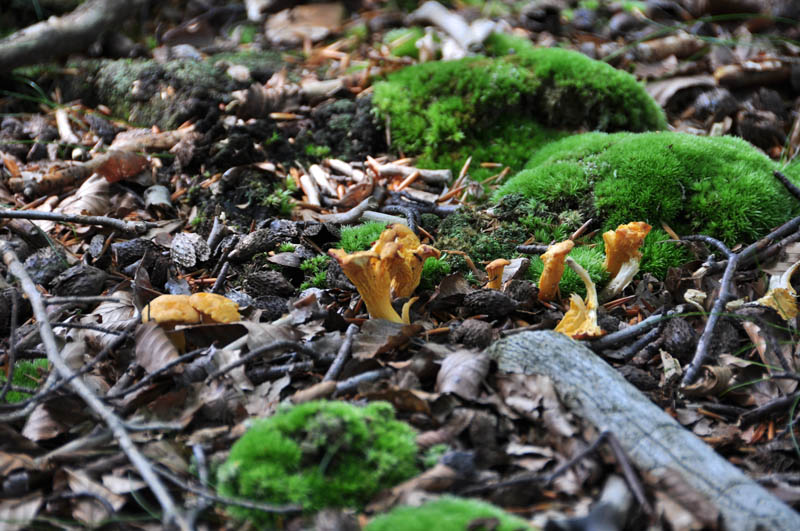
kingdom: Fungi
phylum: Basidiomycota
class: Agaricomycetes
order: Cantharellales
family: Hydnaceae
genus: Cantharellus
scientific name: Cantharellus cibarius
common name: almindelig kantarel
